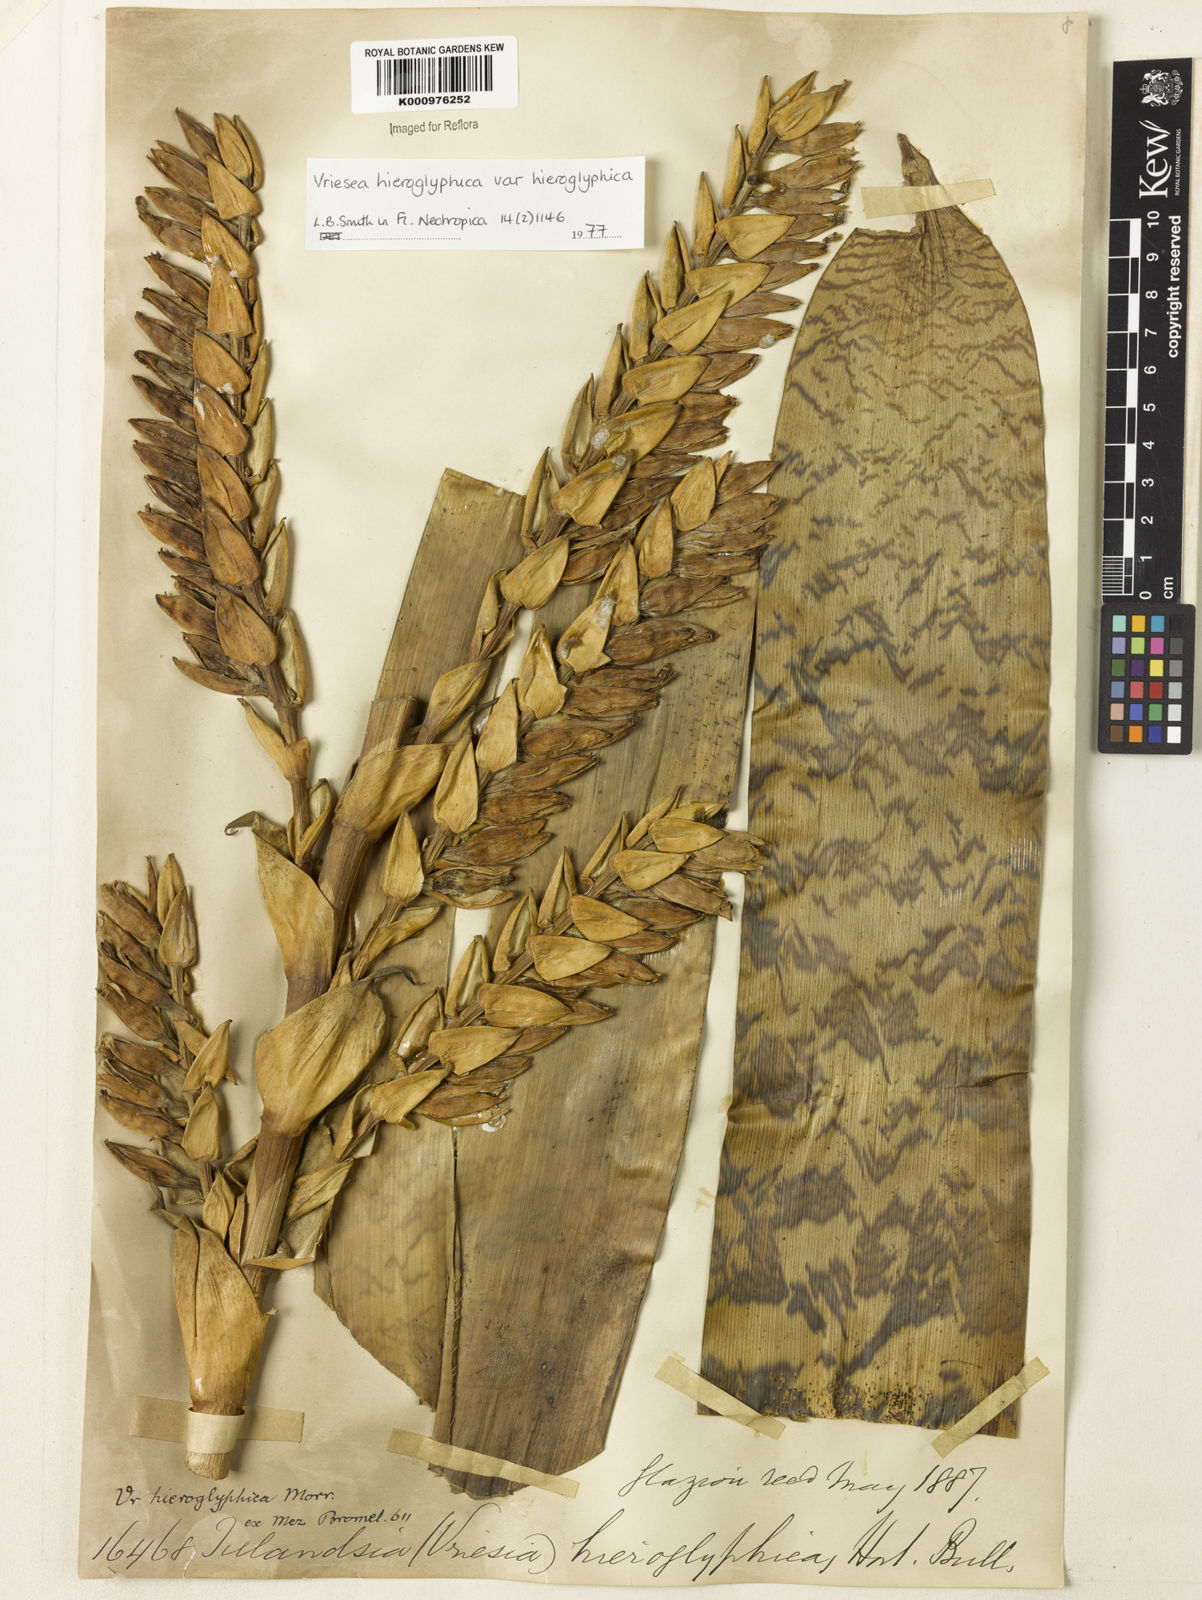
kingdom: Plantae
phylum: Tracheophyta
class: Liliopsida
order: Poales
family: Bromeliaceae
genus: Vriesea
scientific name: Vriesea
